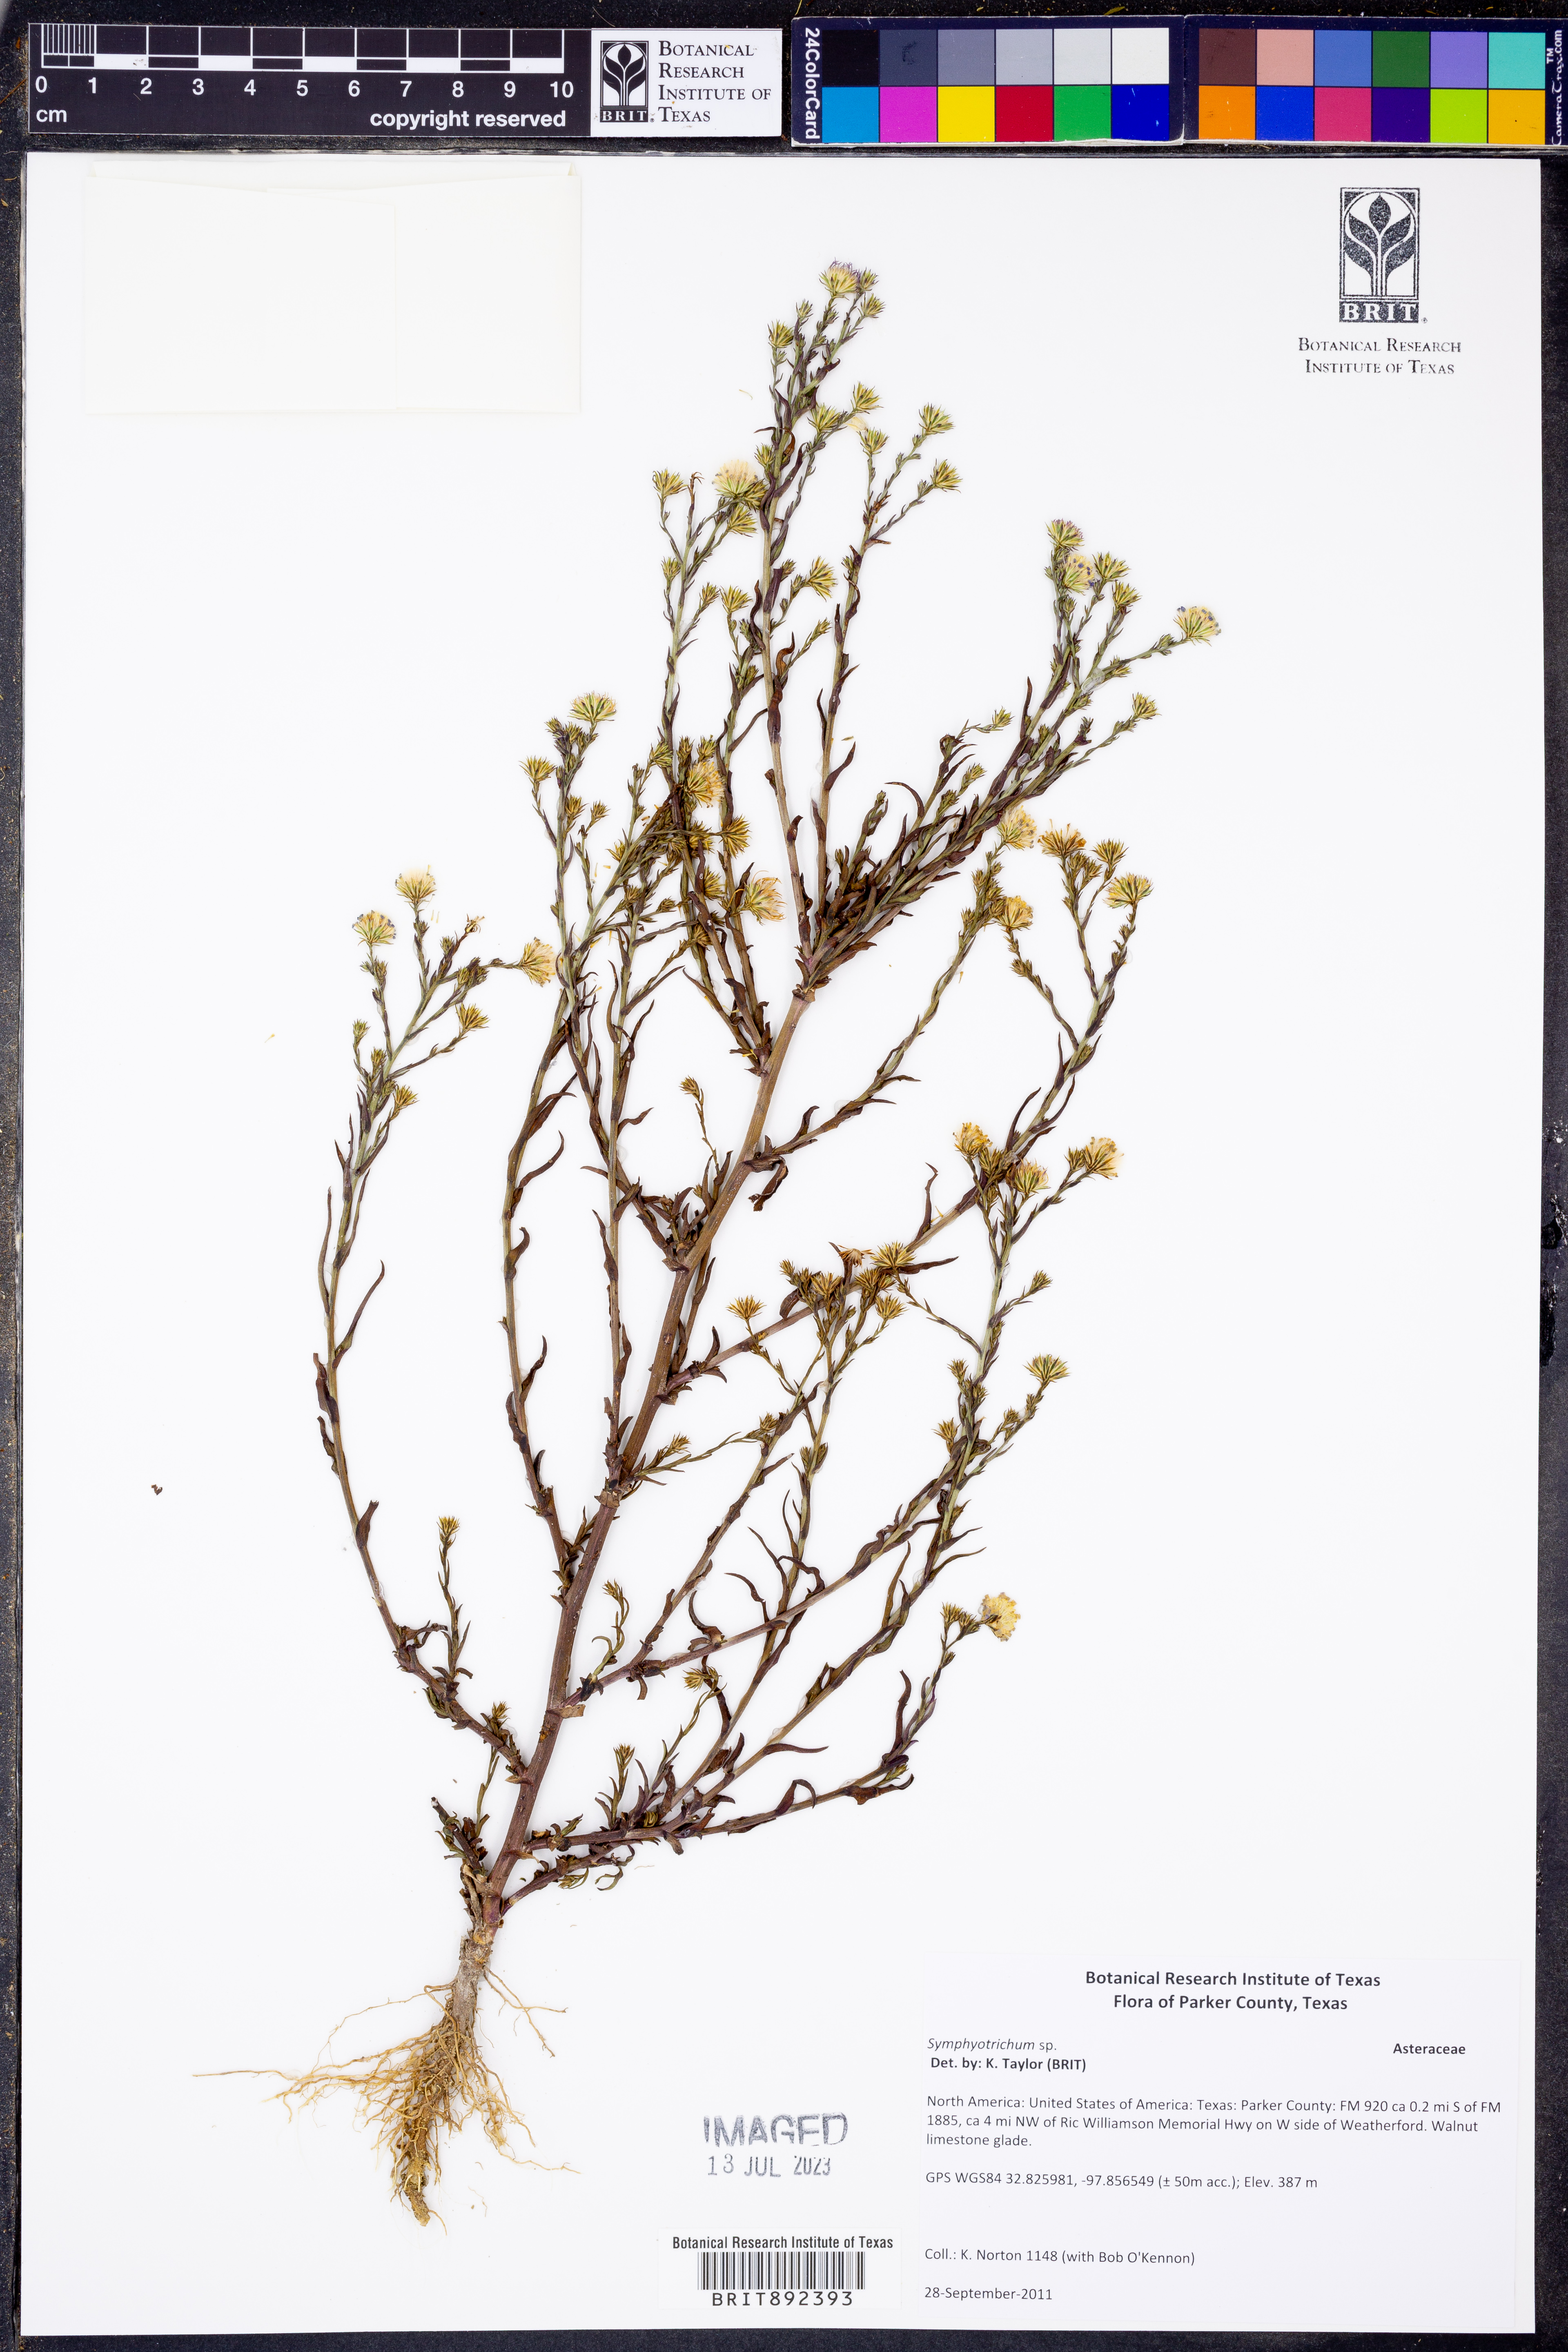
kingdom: Plantae
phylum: Tracheophyta
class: Magnoliopsida
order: Asterales
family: Asteraceae
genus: Symphyotrichum
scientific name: Symphyotrichum
